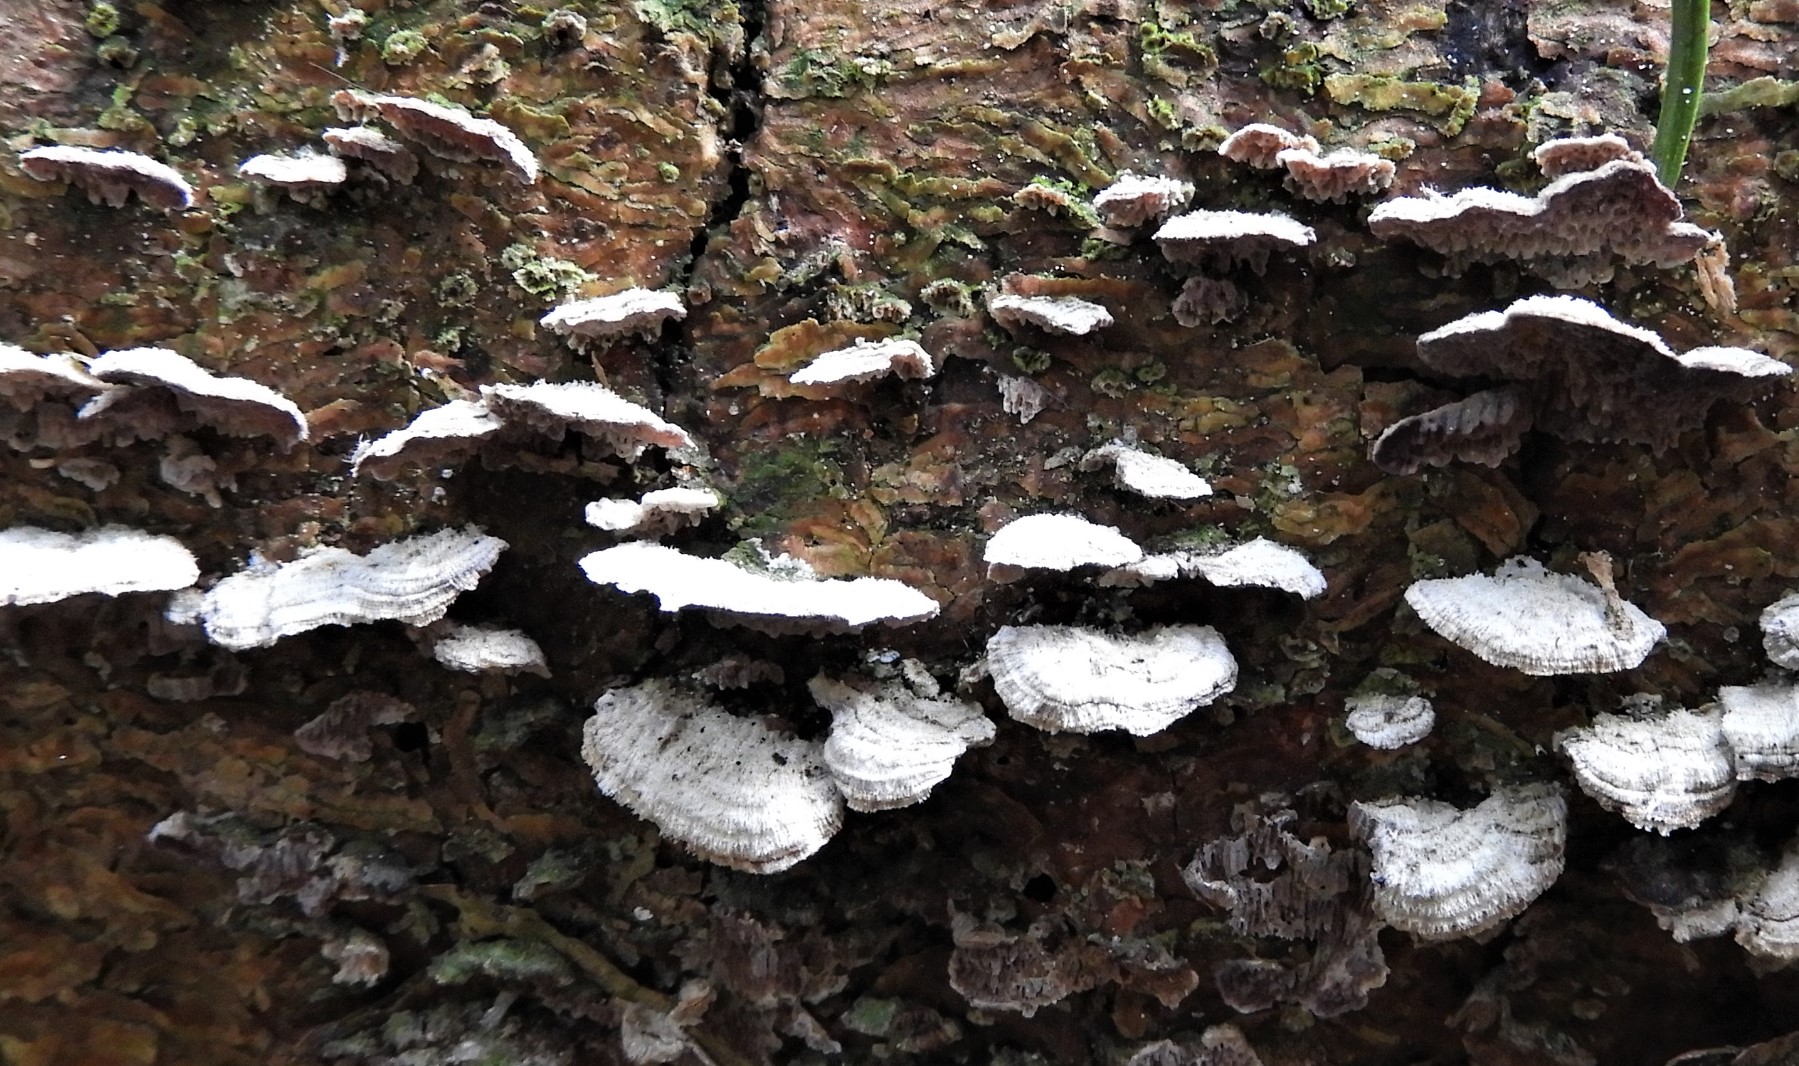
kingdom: Fungi
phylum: Basidiomycota
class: Agaricomycetes
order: Hymenochaetales
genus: Trichaptum
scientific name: Trichaptum fuscoviolaceum
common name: tandet violporesvamp
